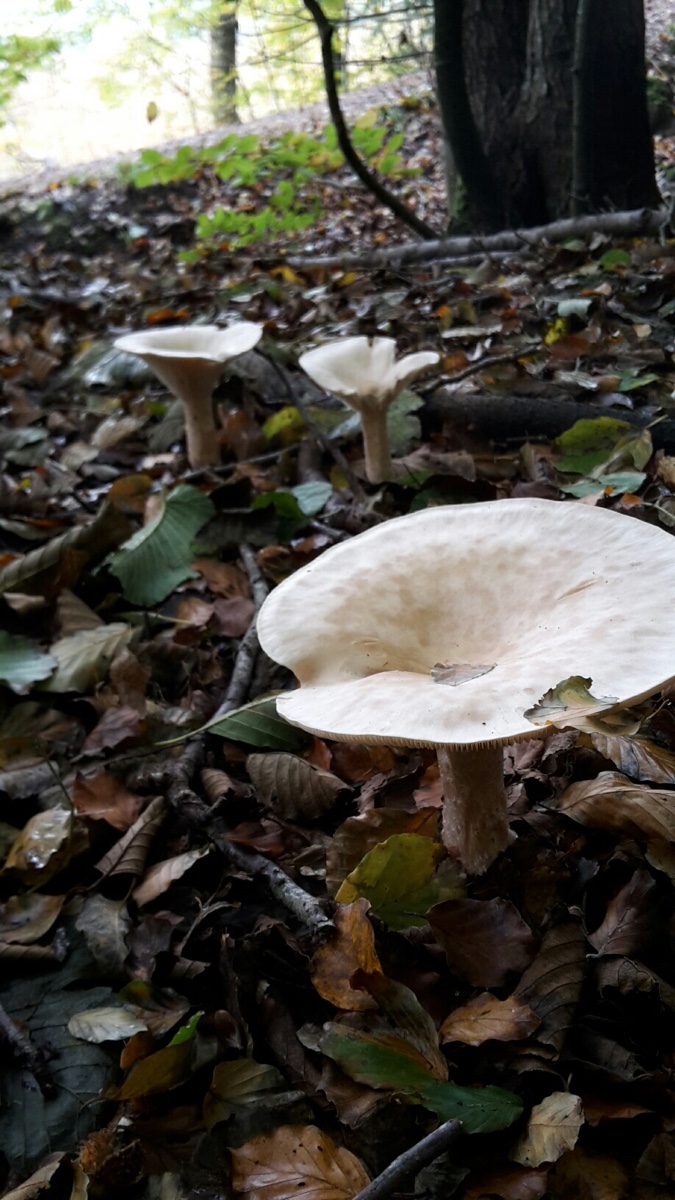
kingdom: Fungi
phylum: Basidiomycota
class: Agaricomycetes
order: Agaricales
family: Tricholomataceae
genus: Infundibulicybe
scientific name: Infundibulicybe geotropa
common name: stor tragthat
